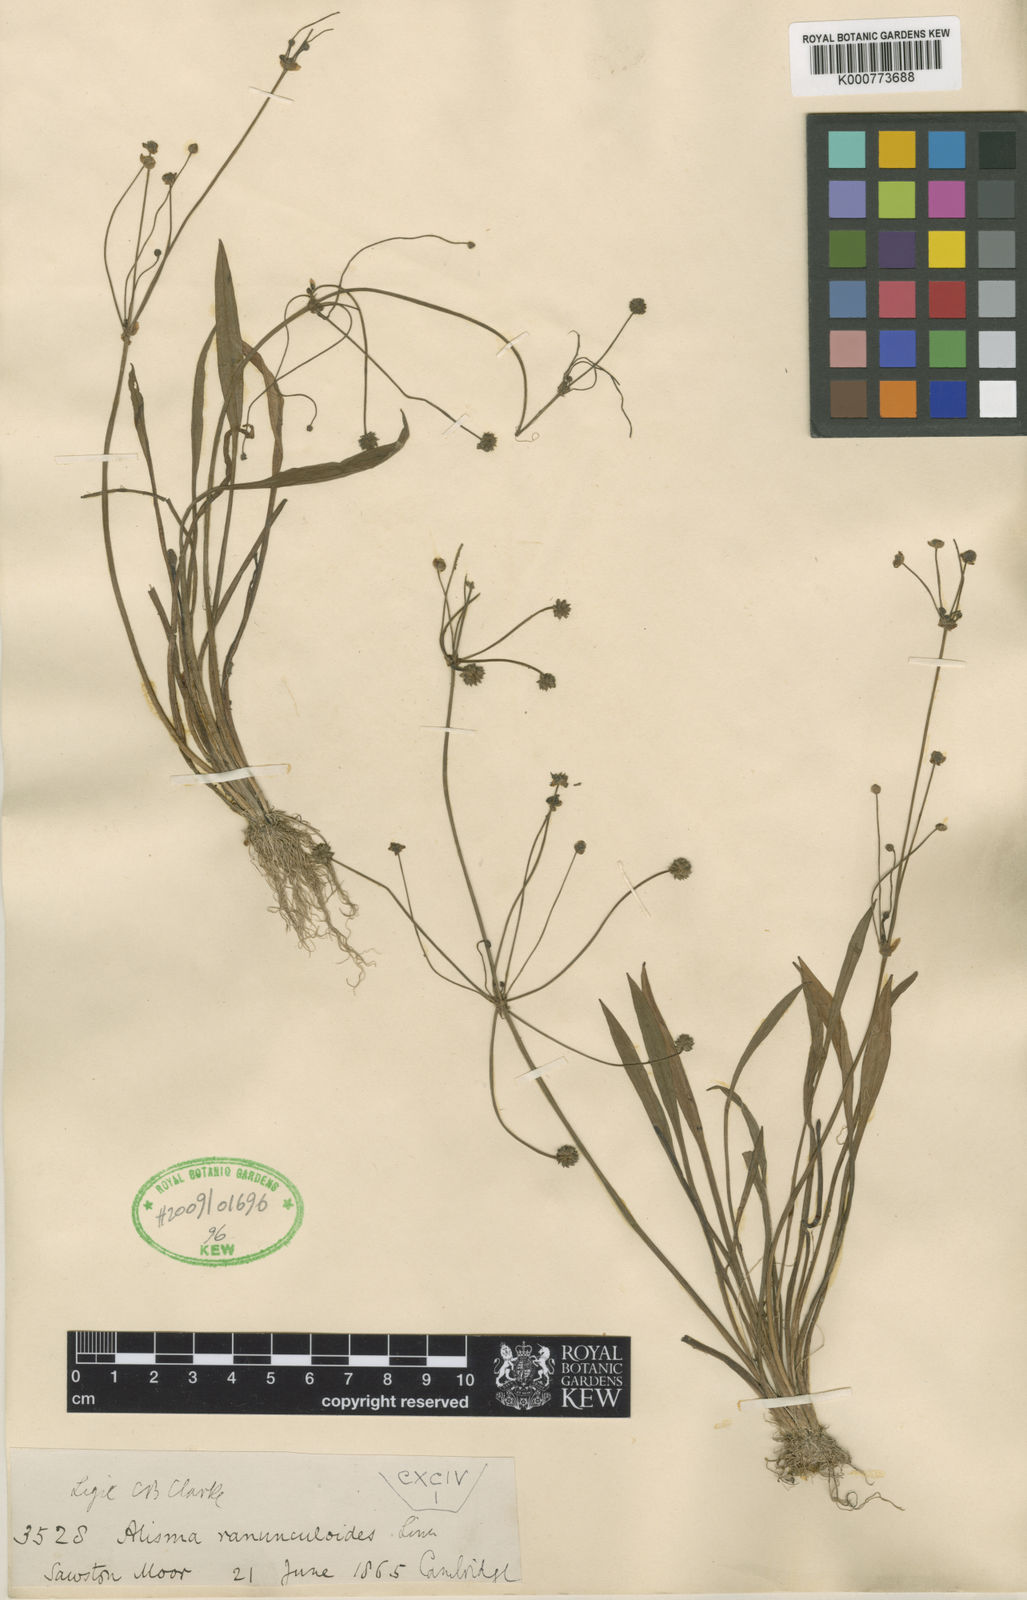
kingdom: Plantae
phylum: Tracheophyta
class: Liliopsida
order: Alismatales
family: Alismataceae
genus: Baldellia
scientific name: Baldellia ranunculoides
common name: Lesser water-plantain
